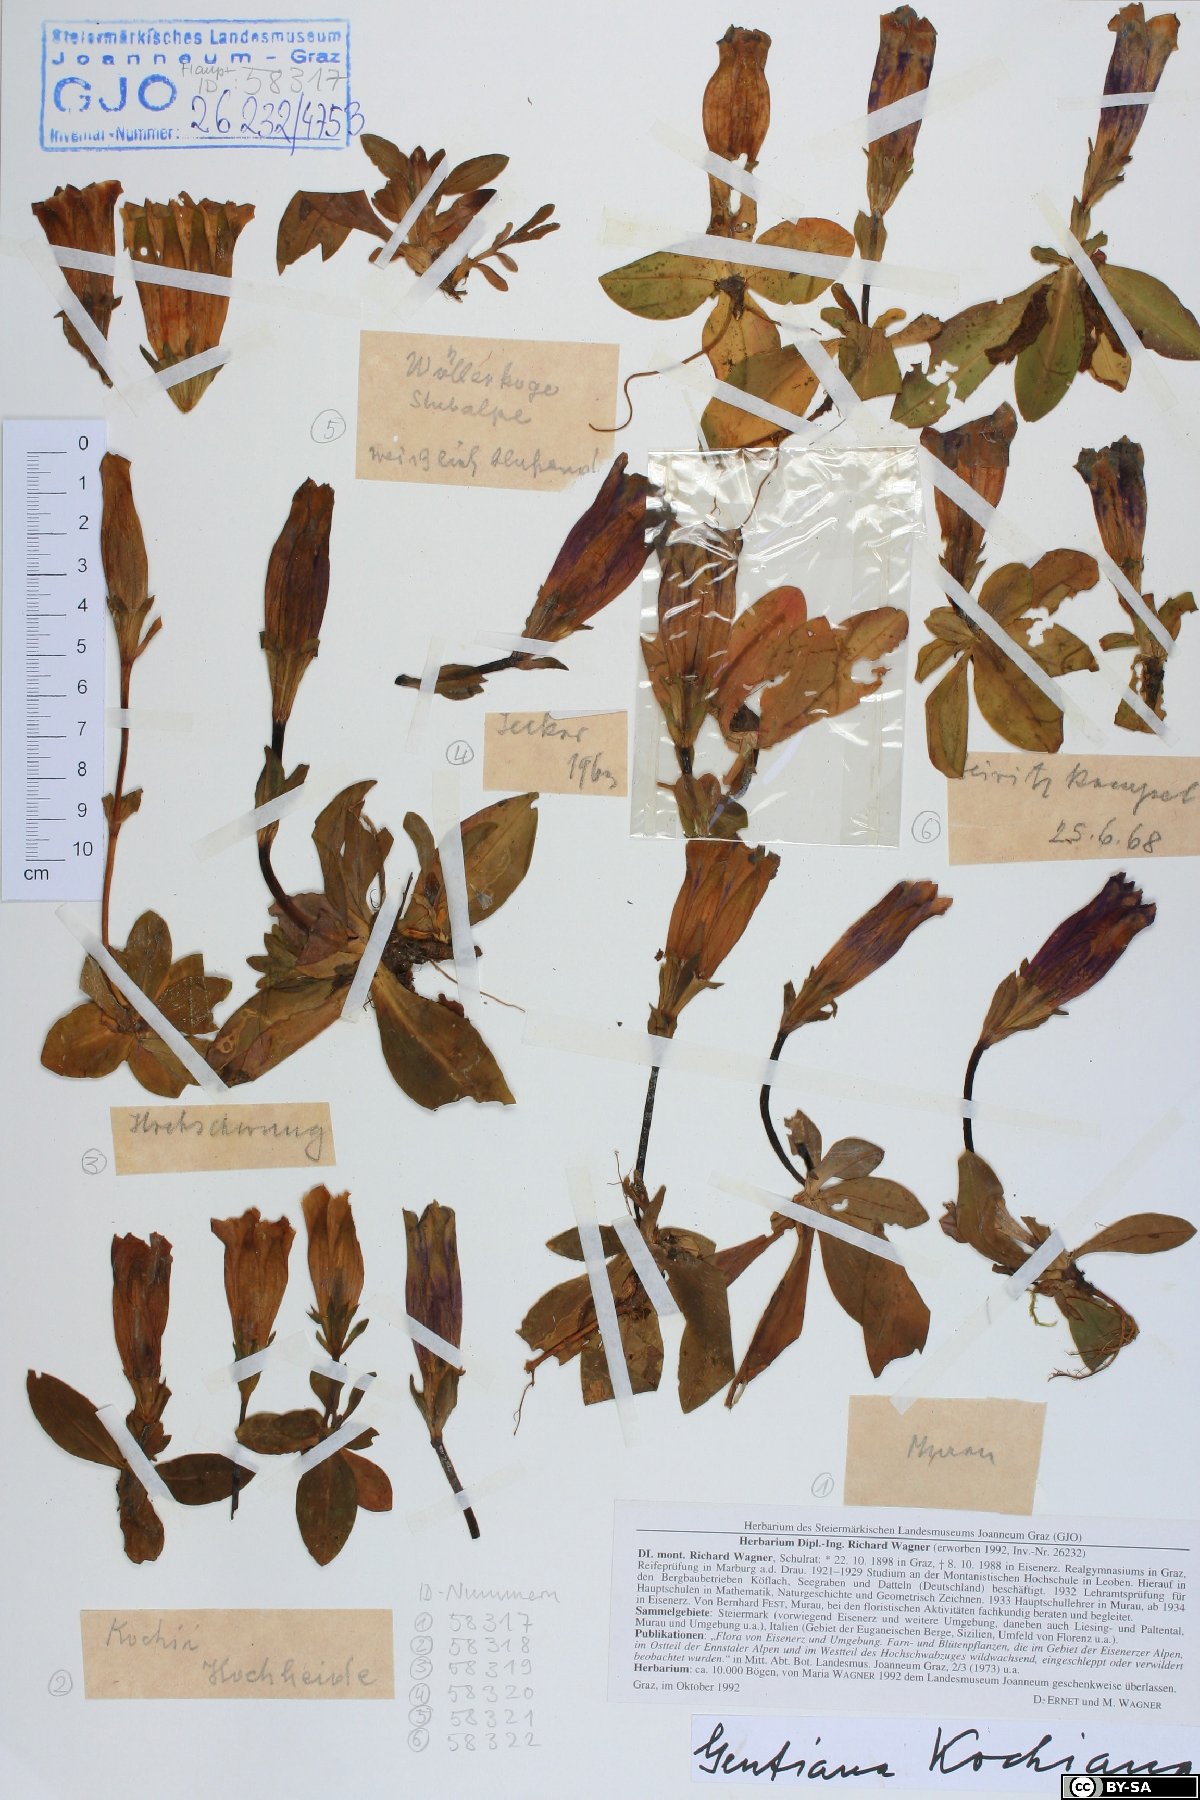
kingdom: Plantae
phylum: Tracheophyta
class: Magnoliopsida
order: Gentianales
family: Gentianaceae
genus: Gentiana
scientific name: Gentiana acaulis
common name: Trumpet gentian
